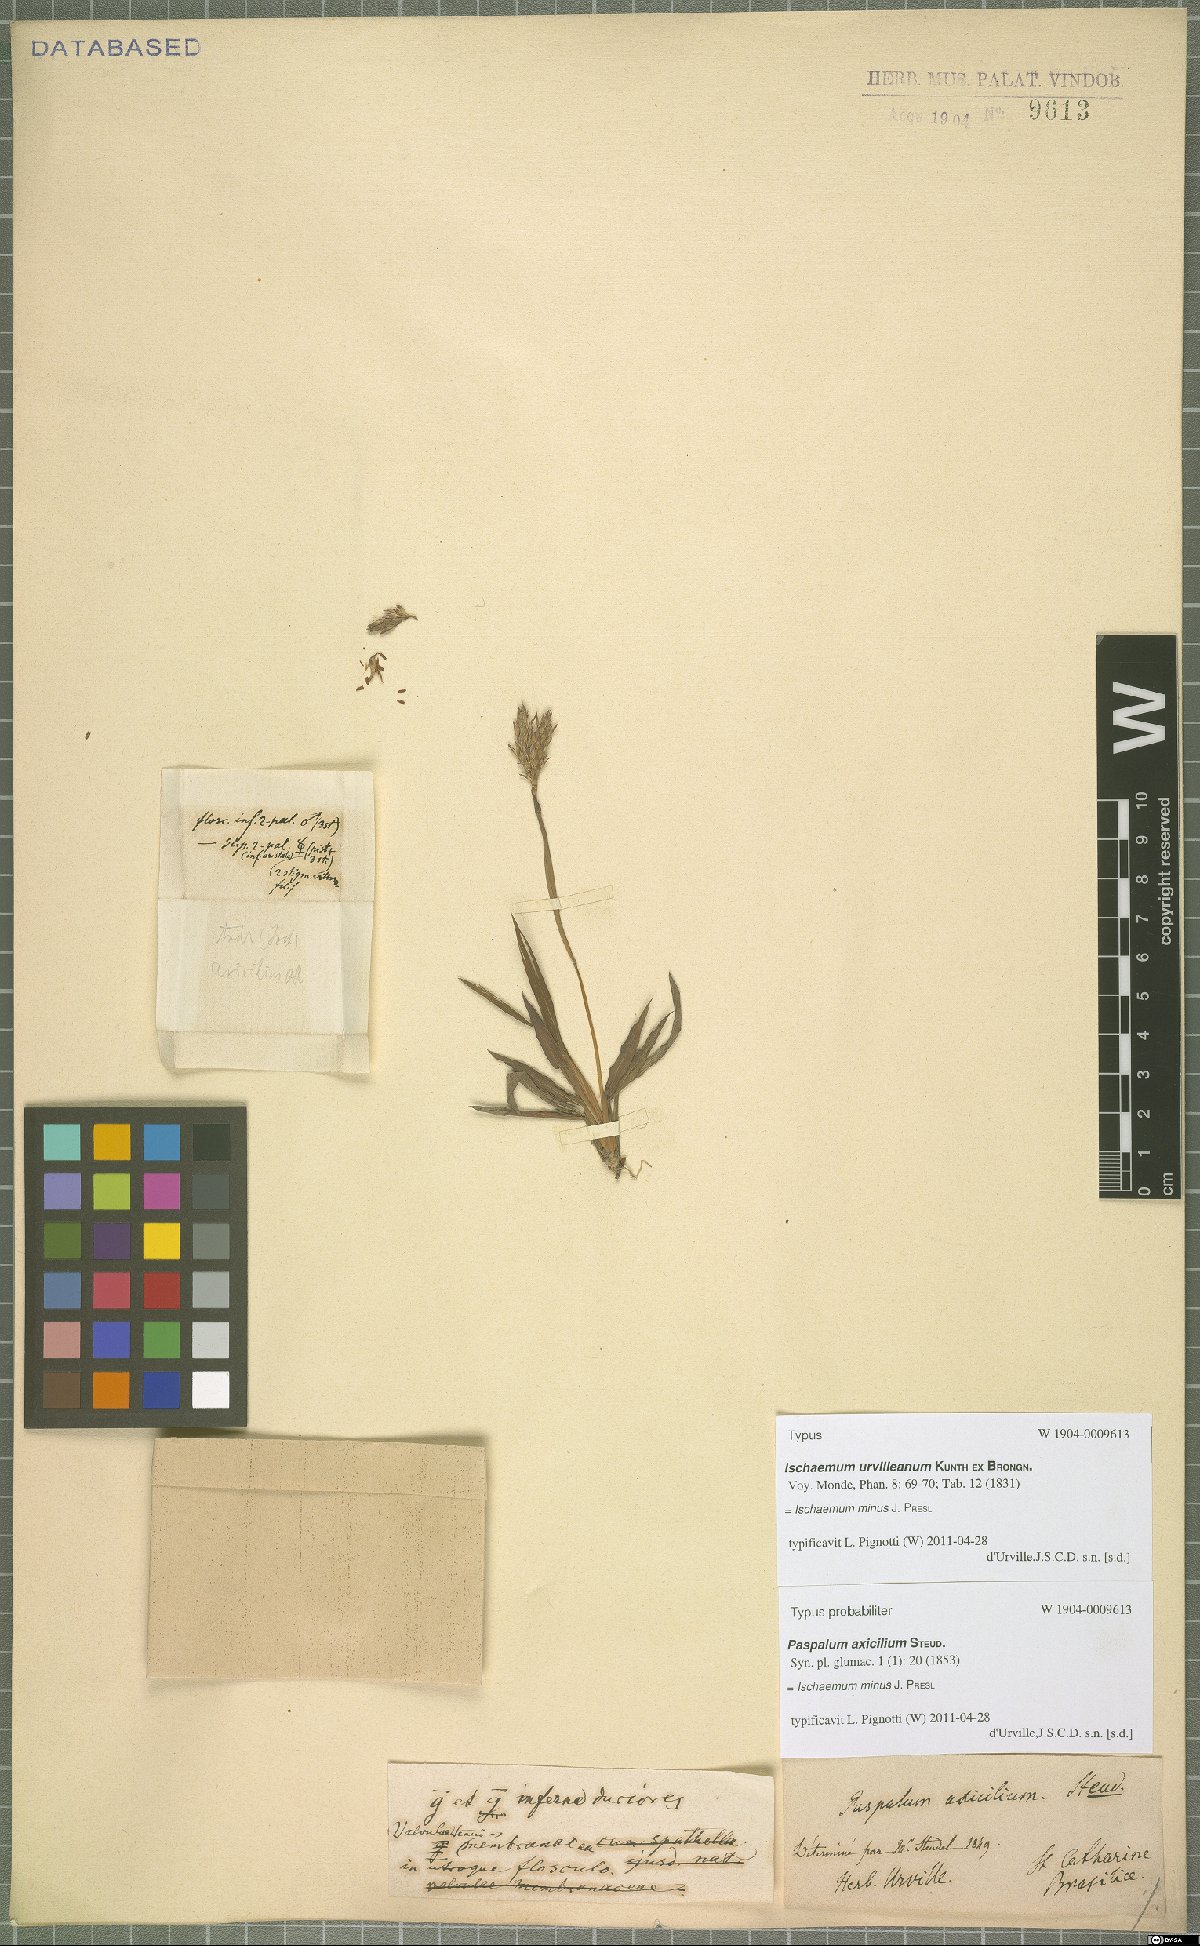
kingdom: Plantae
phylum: Tracheophyta
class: Liliopsida
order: Poales
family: Poaceae
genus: Ischaemum
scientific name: Ischaemum minus
